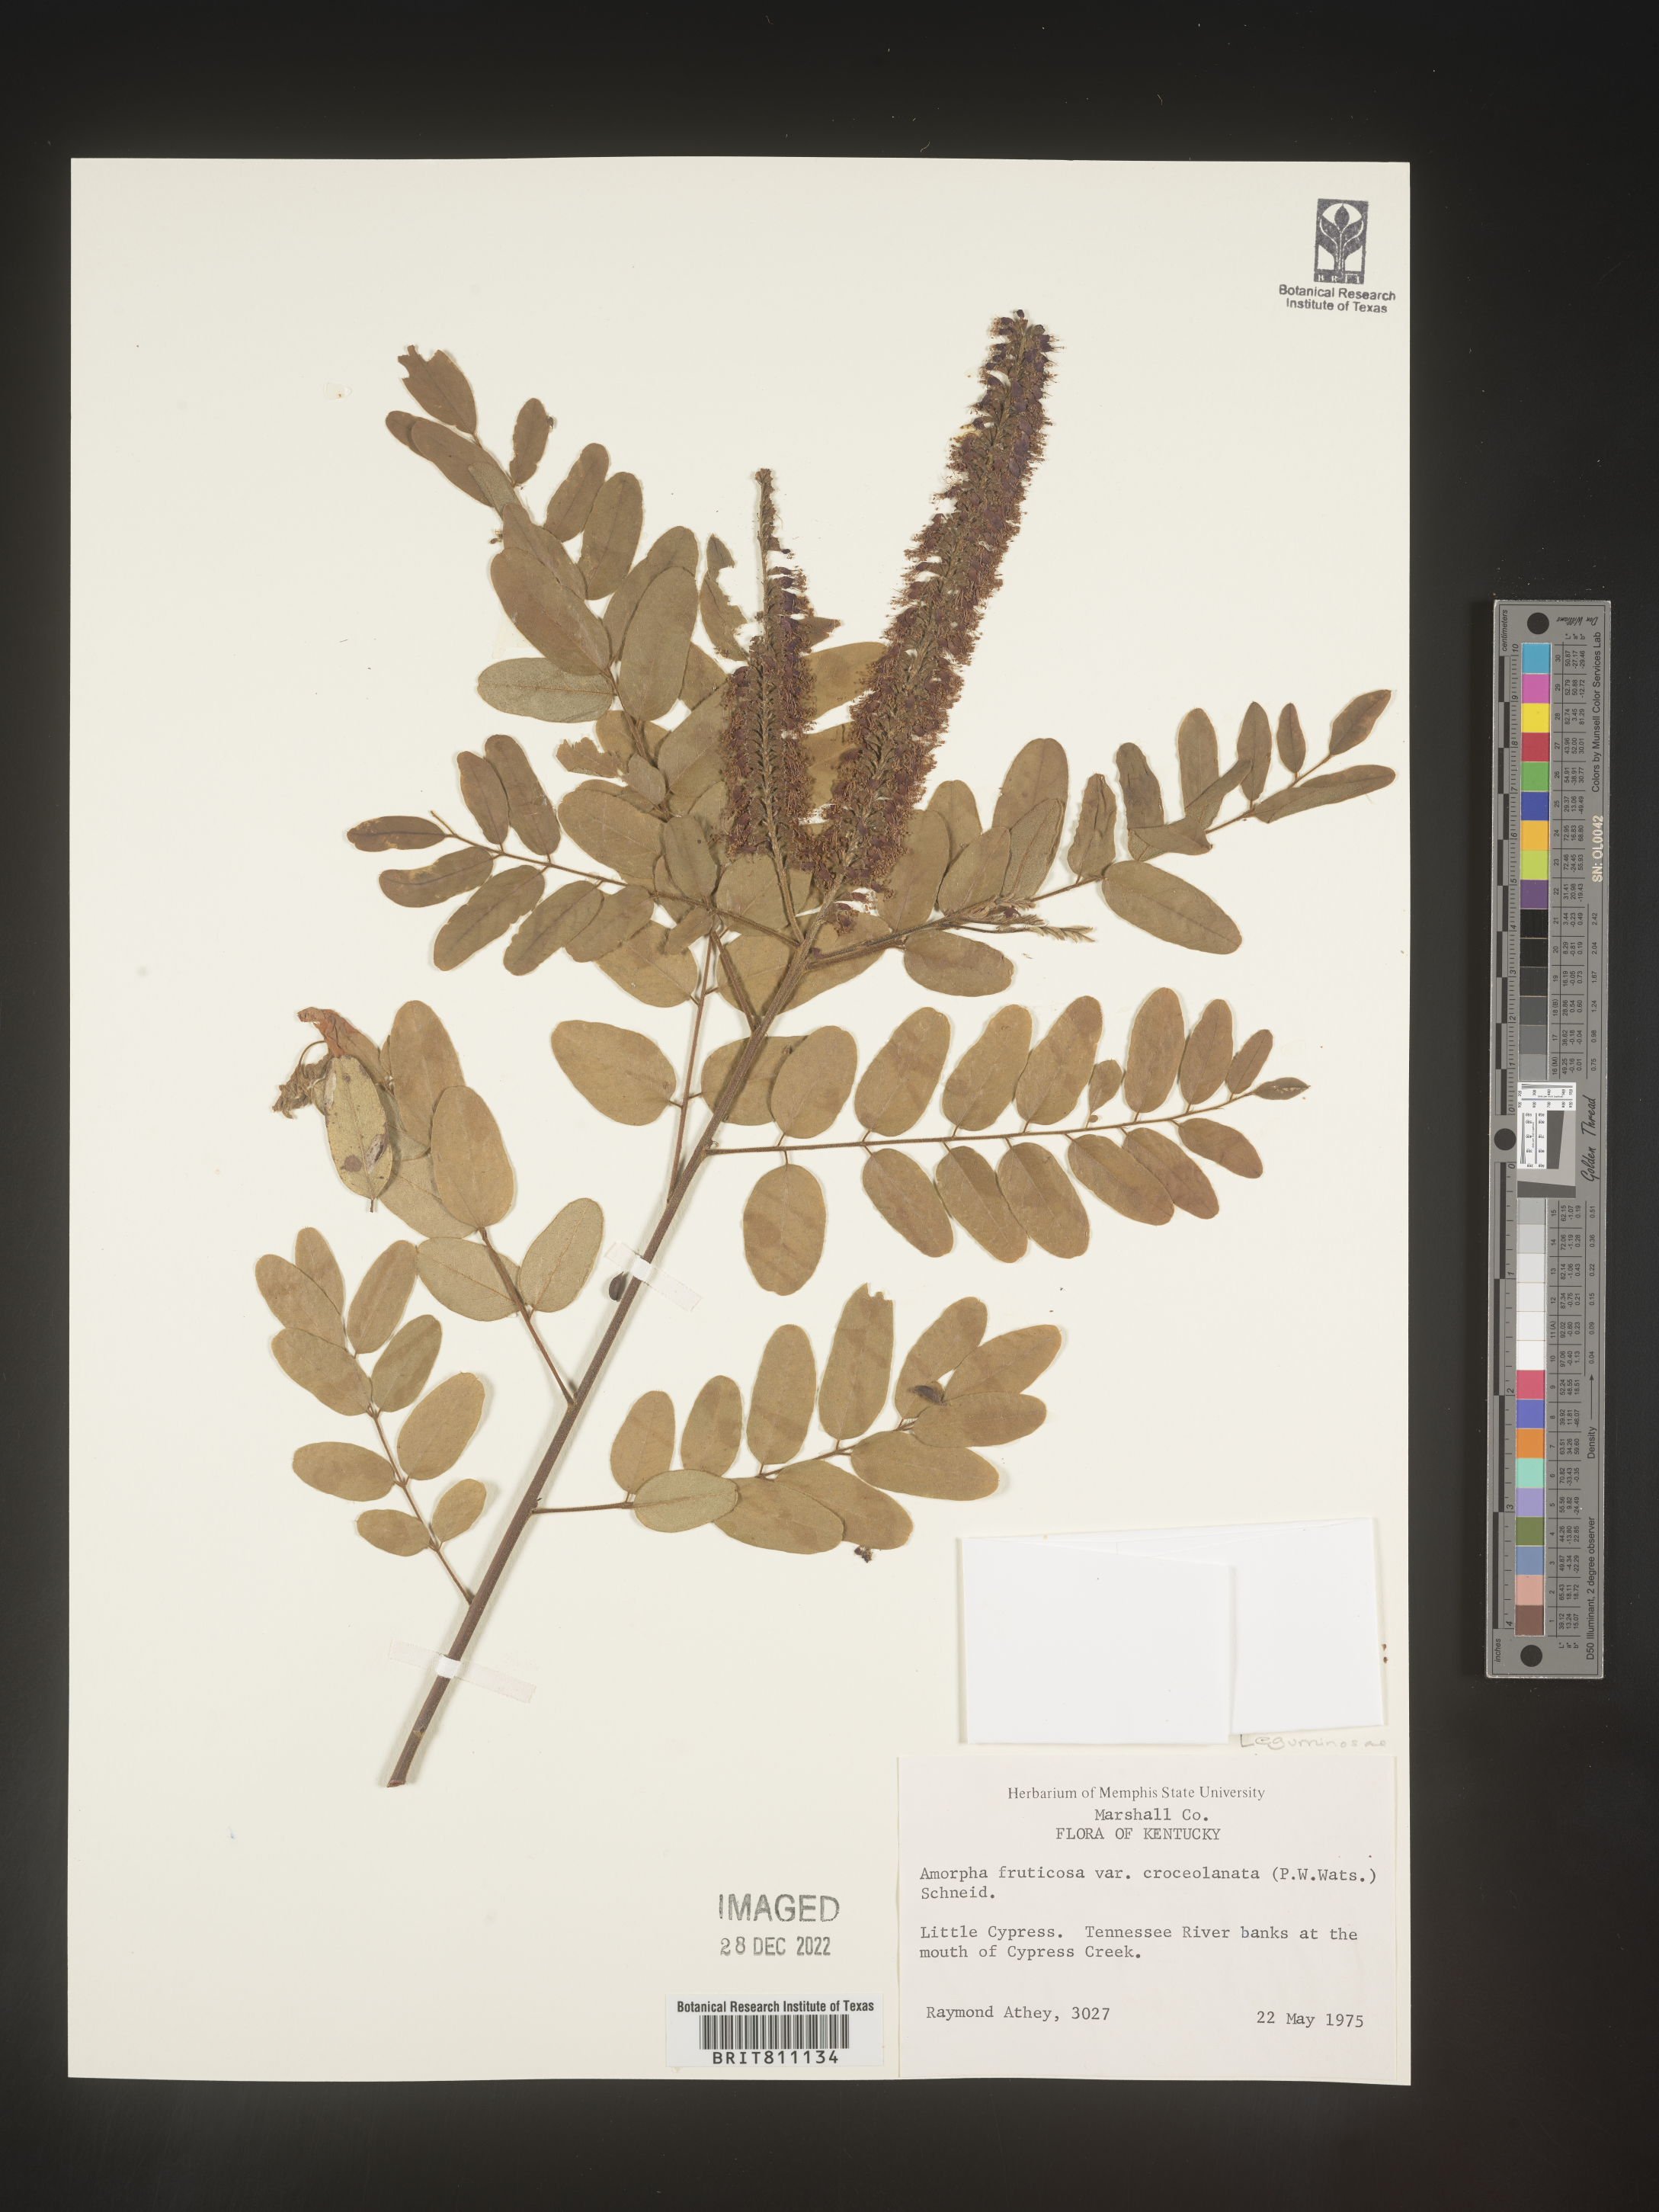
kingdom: Plantae
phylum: Tracheophyta
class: Magnoliopsida
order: Fabales
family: Fabaceae
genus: Amorpha
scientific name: Amorpha fruticosa
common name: False indigo
